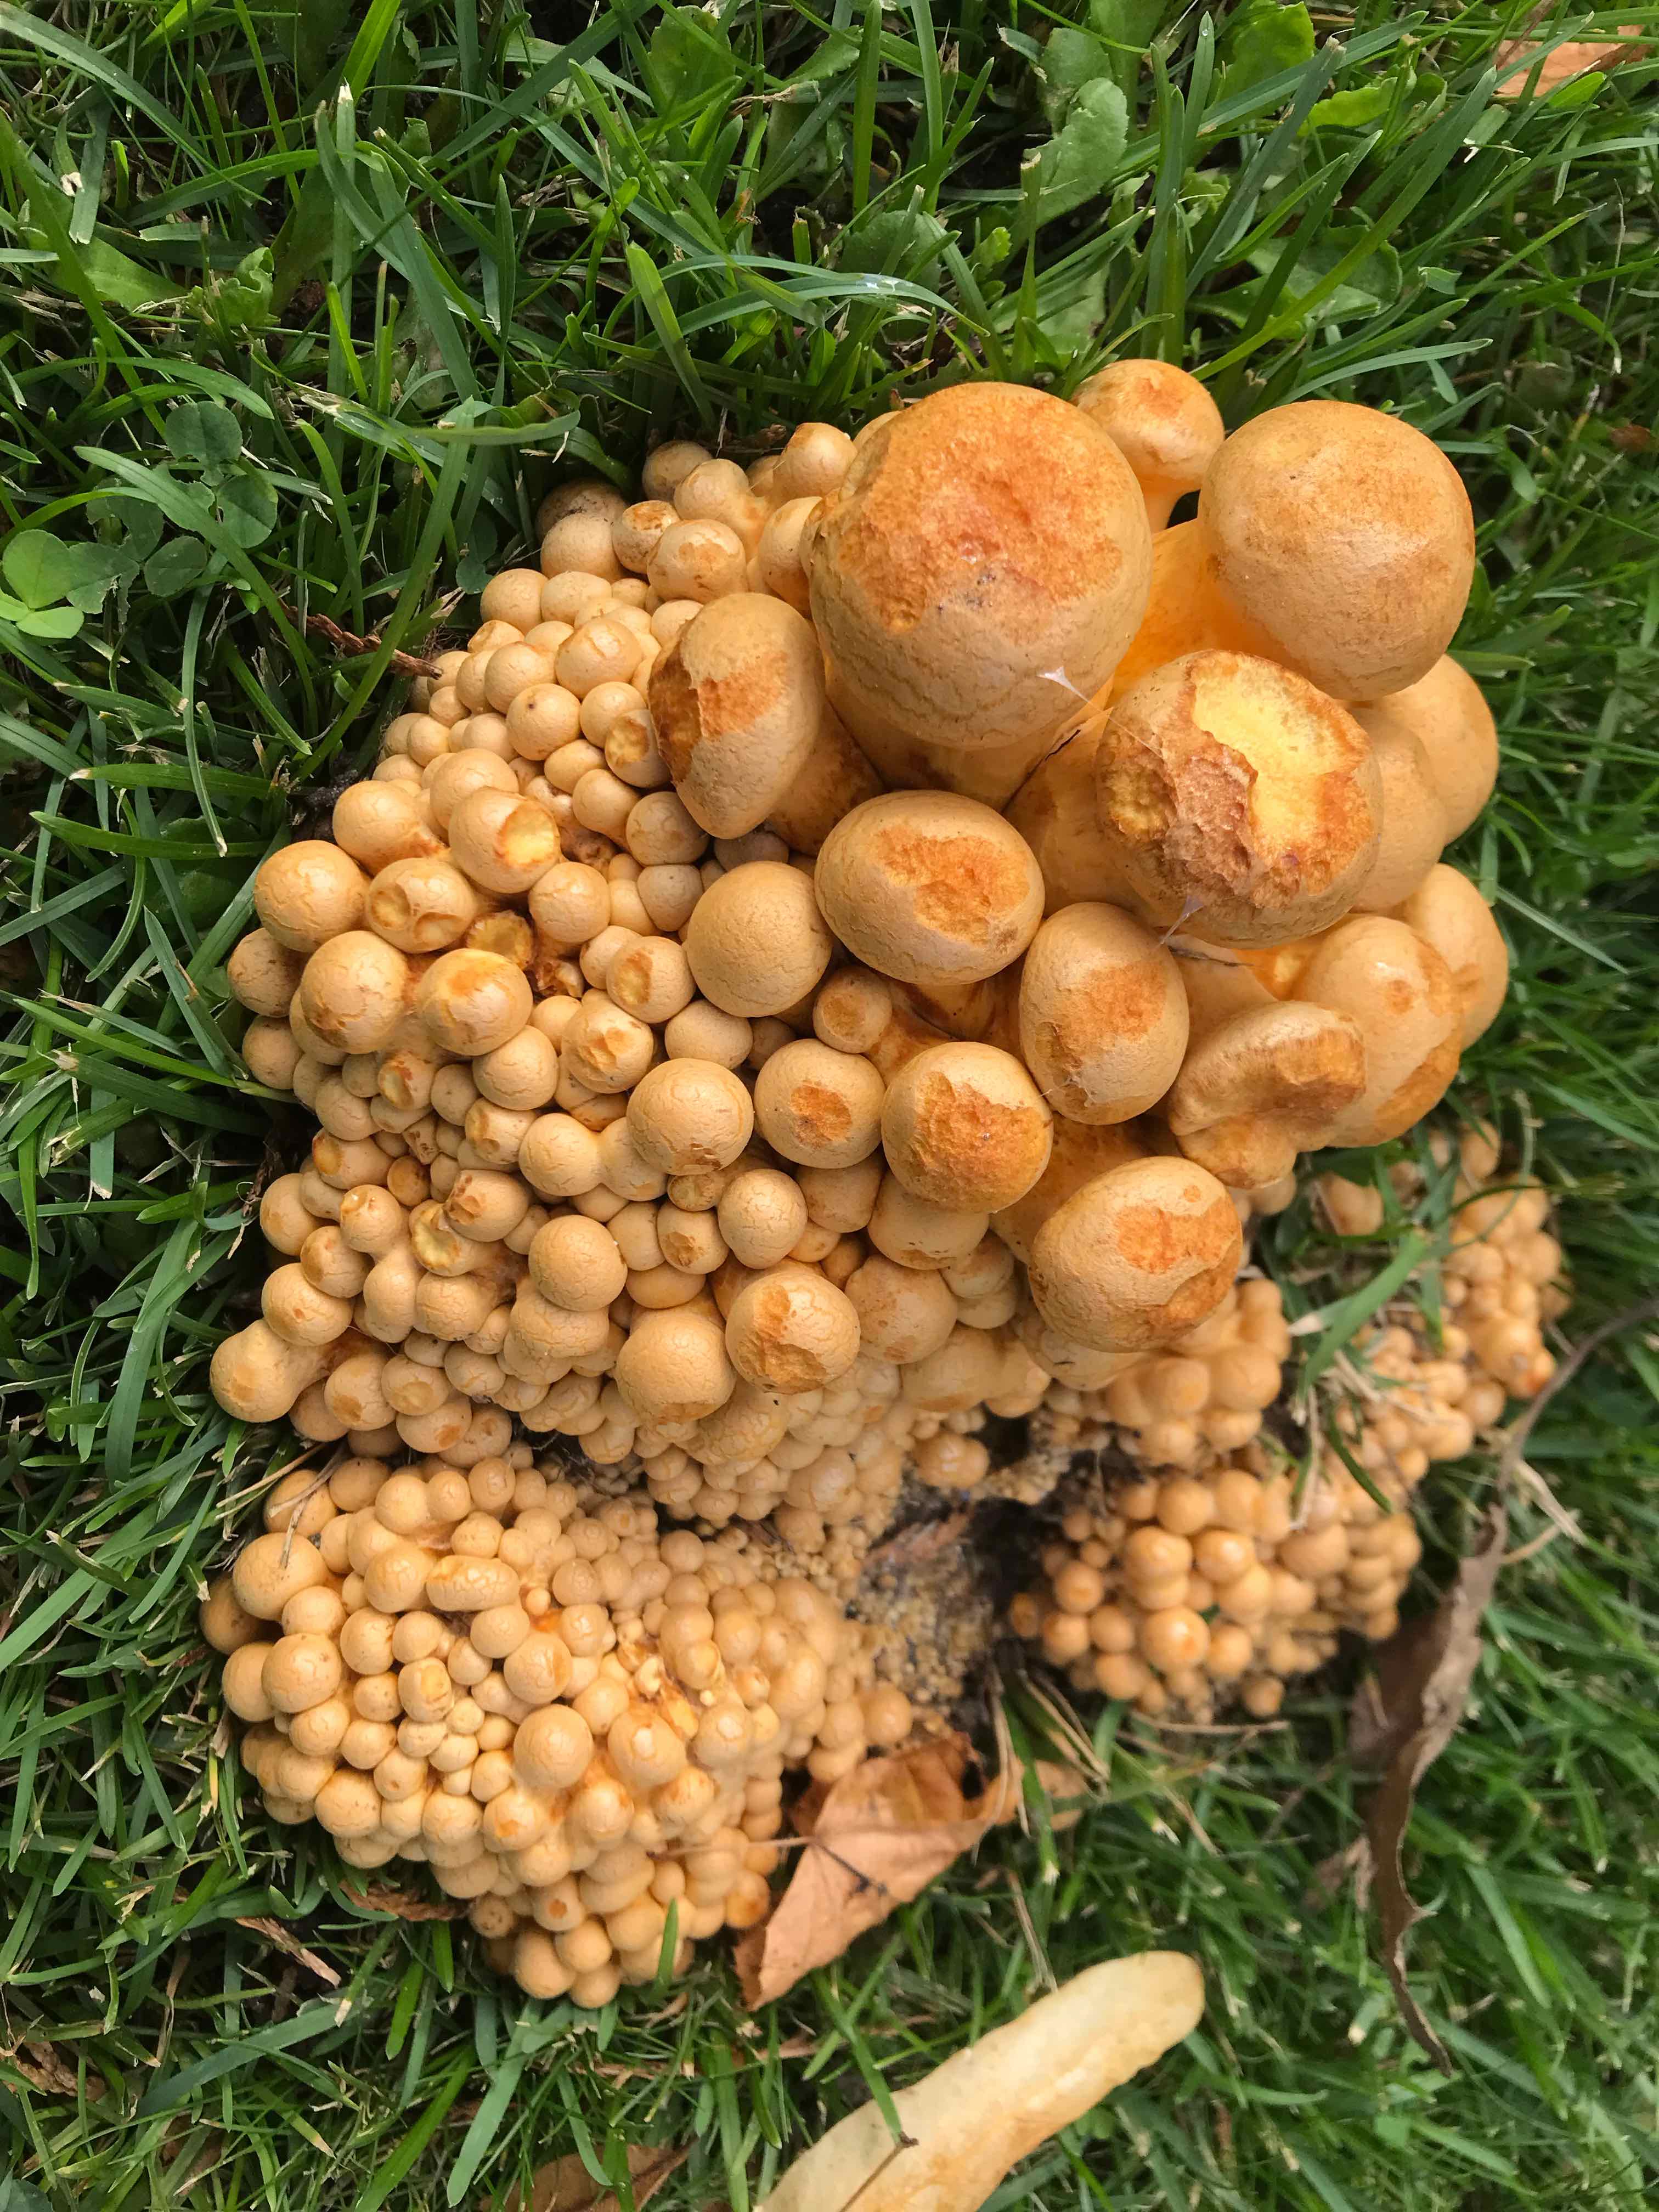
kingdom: Fungi
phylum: Basidiomycota
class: Agaricomycetes
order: Agaricales
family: Hymenogastraceae
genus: Gymnopilus
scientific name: Gymnopilus spectabilis
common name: fibret flammehat
